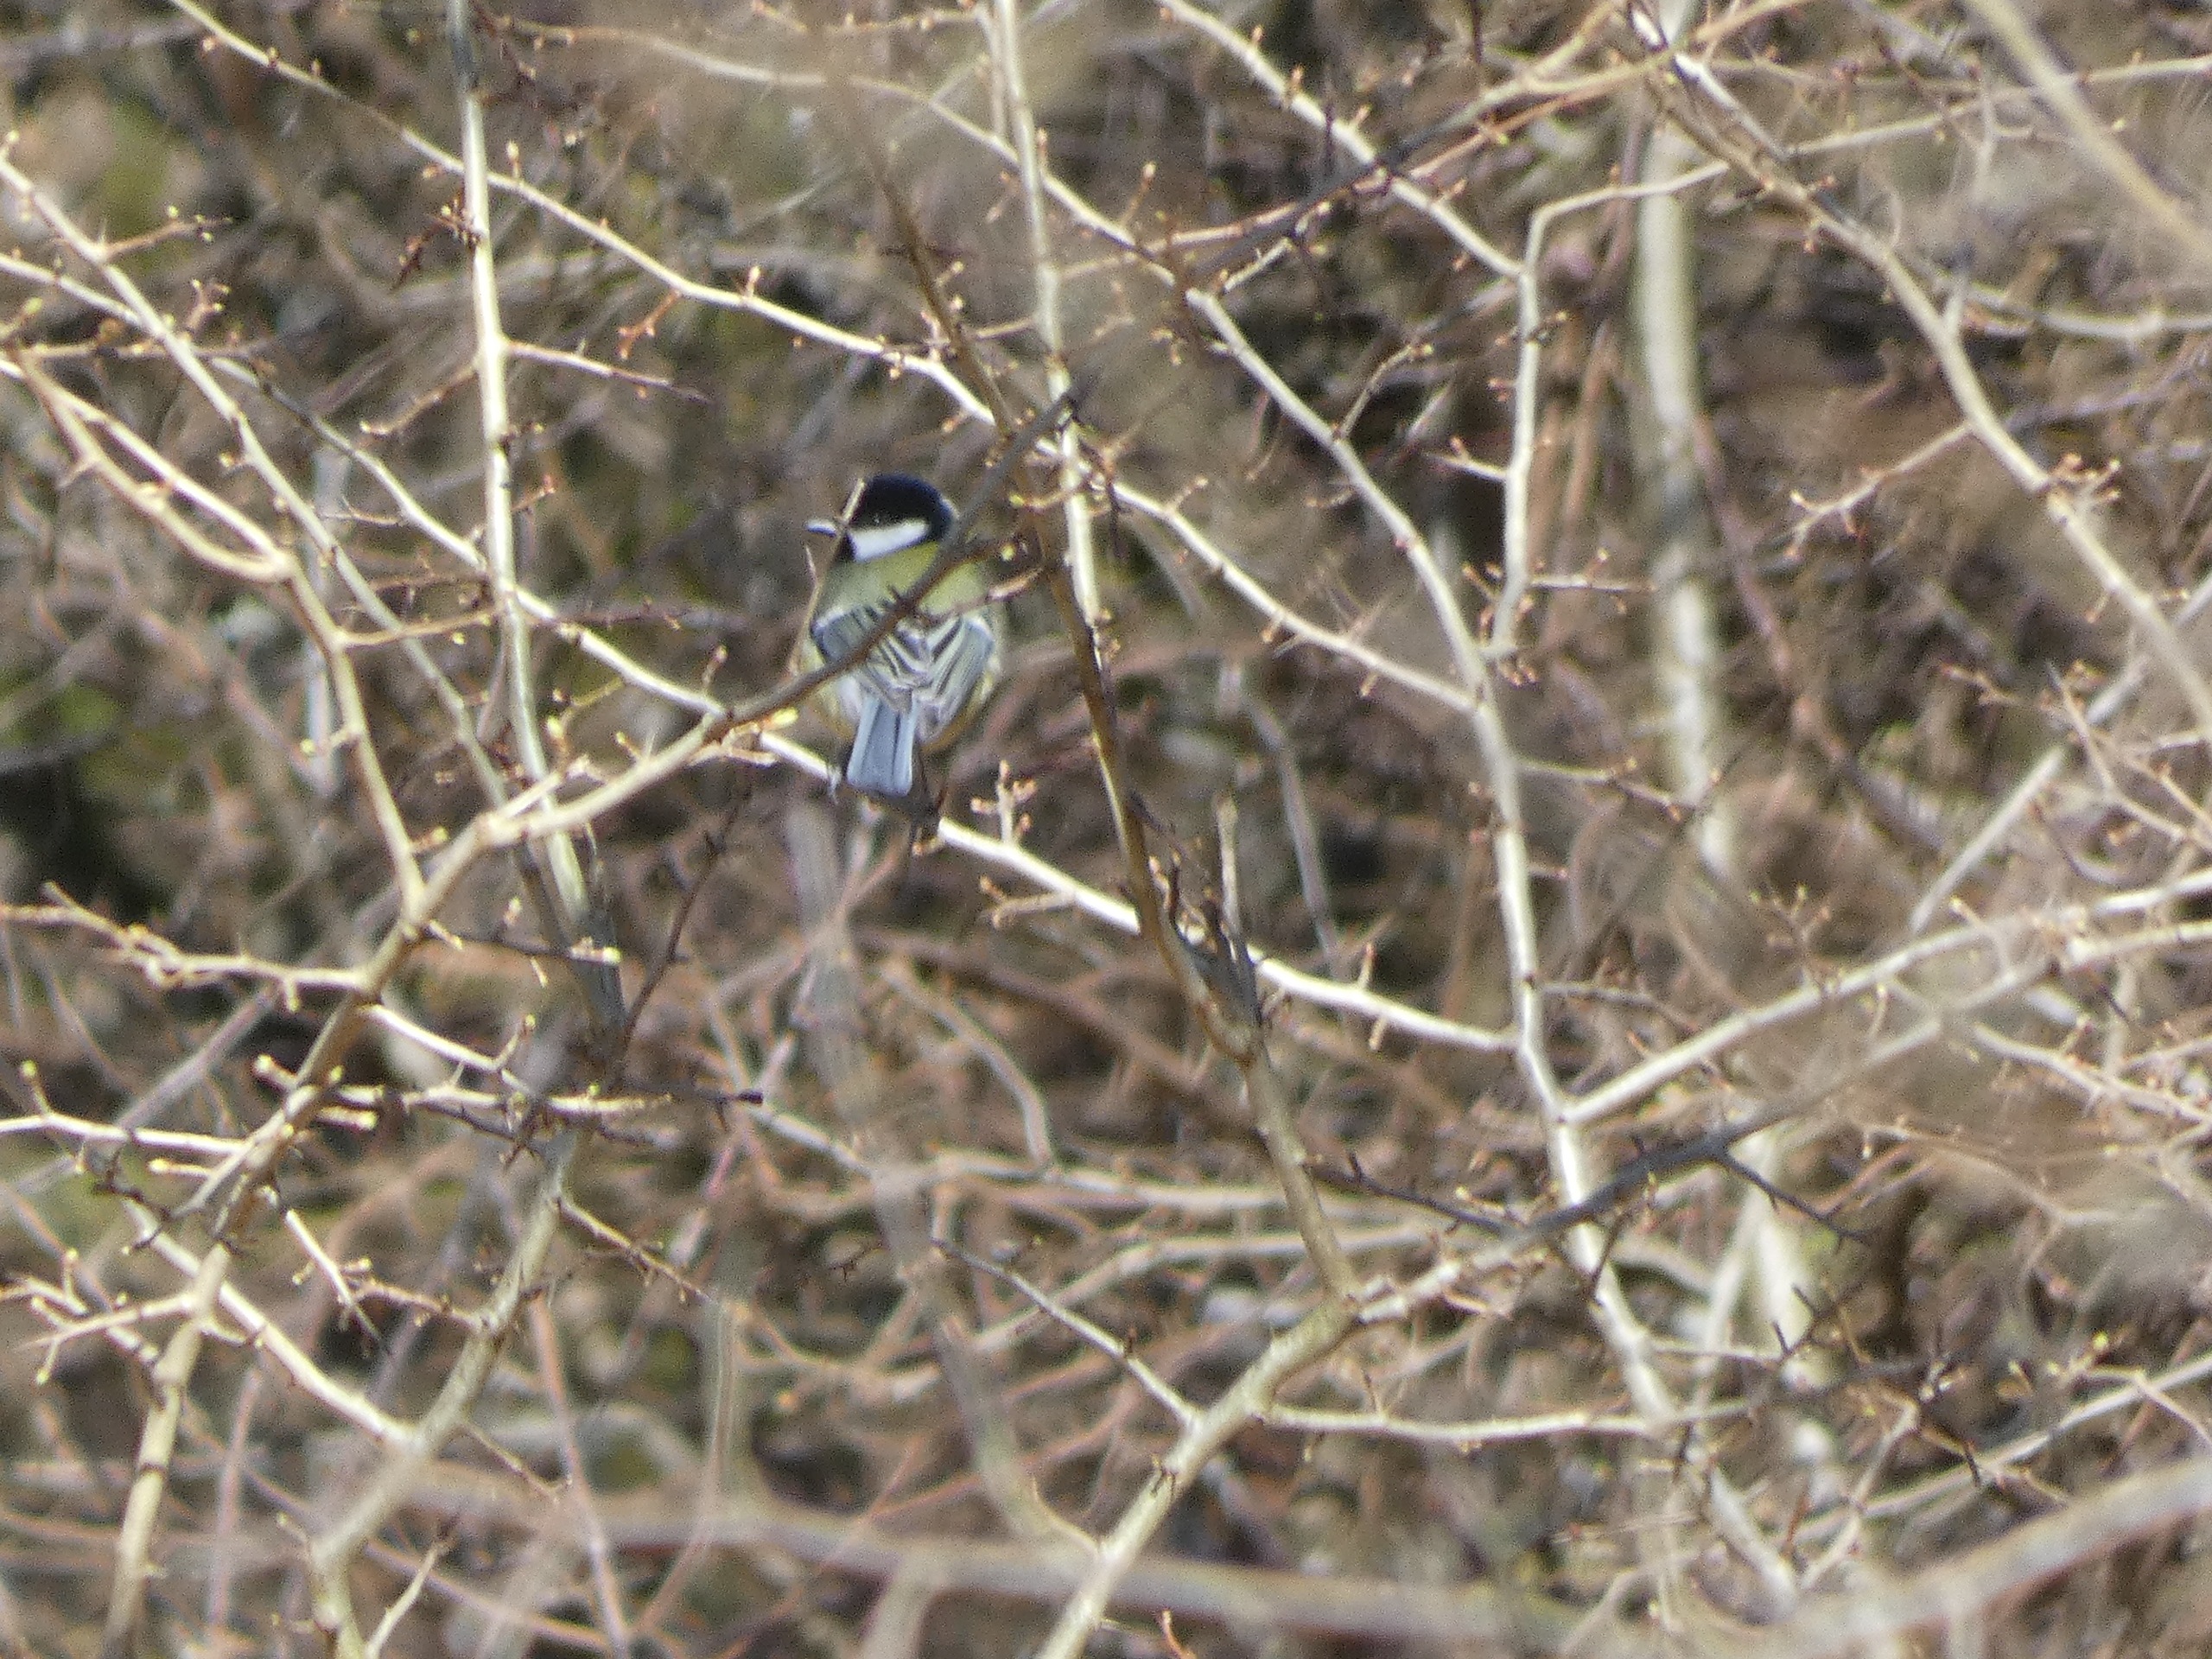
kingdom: Animalia
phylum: Chordata
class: Aves
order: Passeriformes
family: Paridae
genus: Parus
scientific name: Parus major
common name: Musvit
